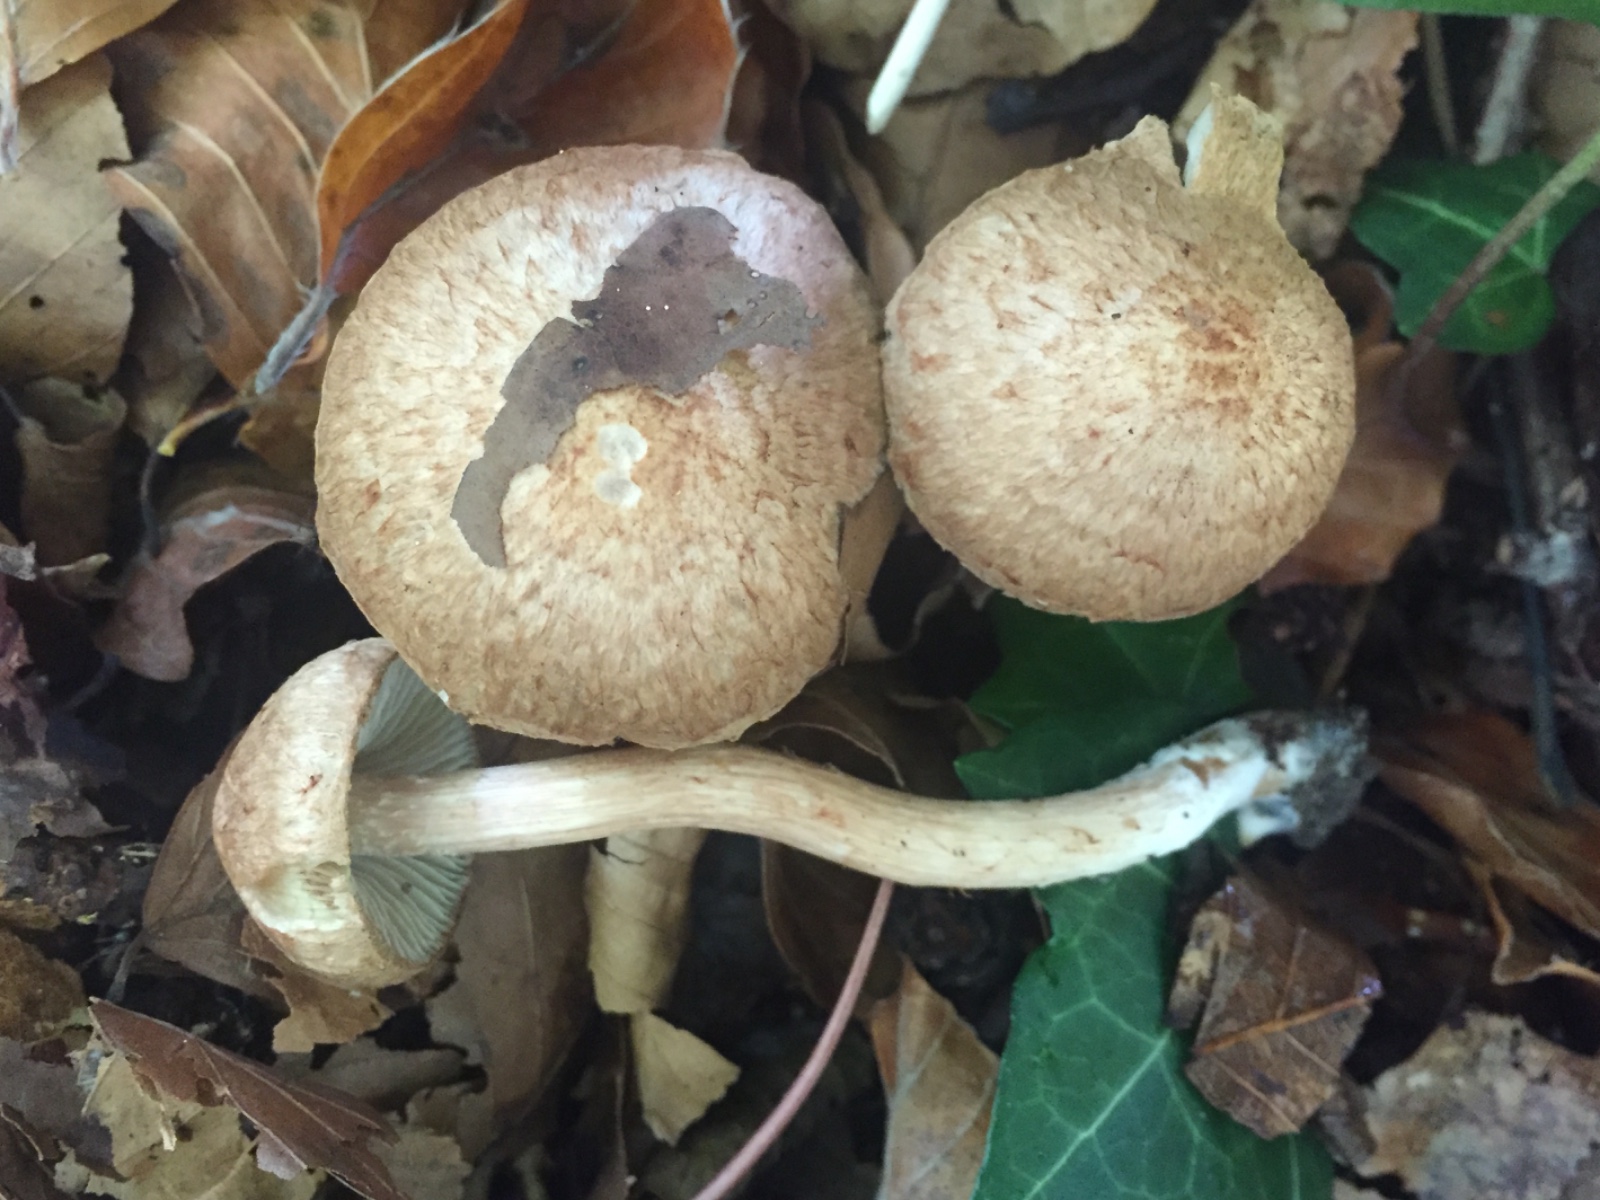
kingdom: Fungi
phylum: Basidiomycota
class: Agaricomycetes
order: Agaricales
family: Inocybaceae
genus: Inosperma
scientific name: Inosperma bongardii
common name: Bongards trævlhat
